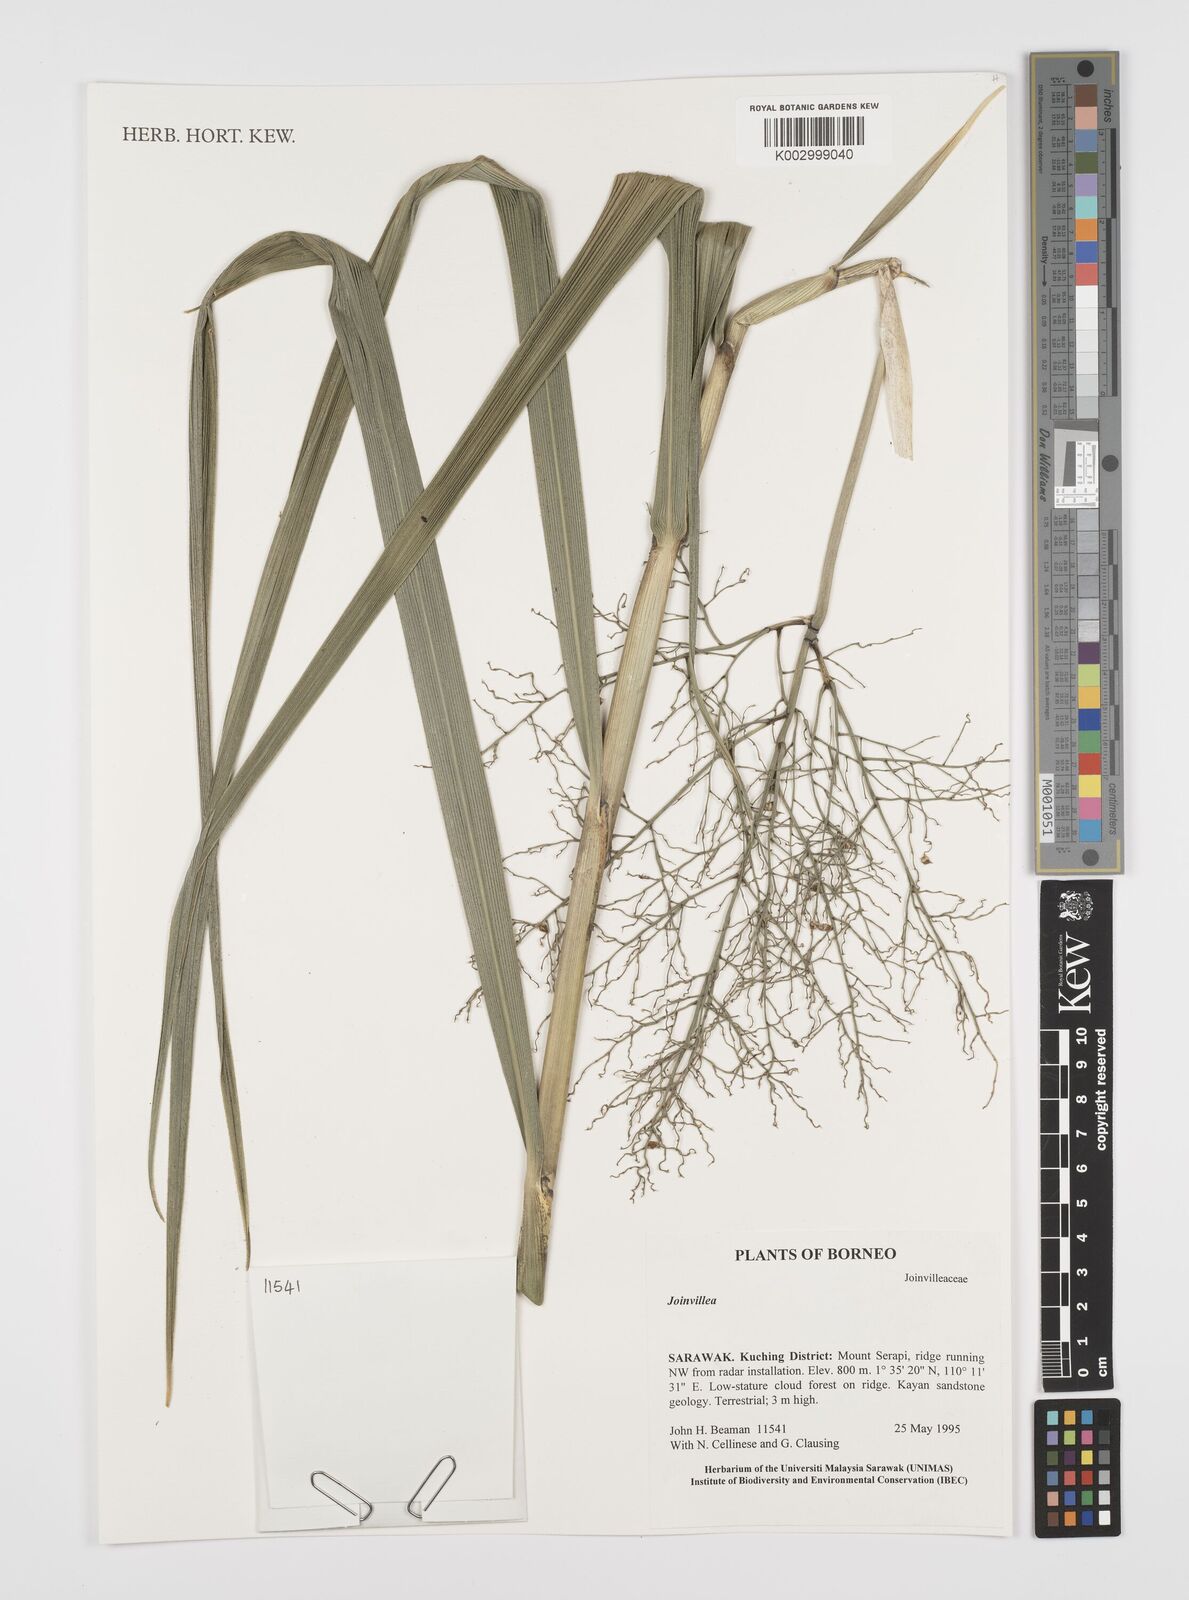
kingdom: Plantae
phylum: Tracheophyta
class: Liliopsida
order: Poales
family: Joinvilleaceae
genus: Joinvillea
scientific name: Joinvillea borneensis
